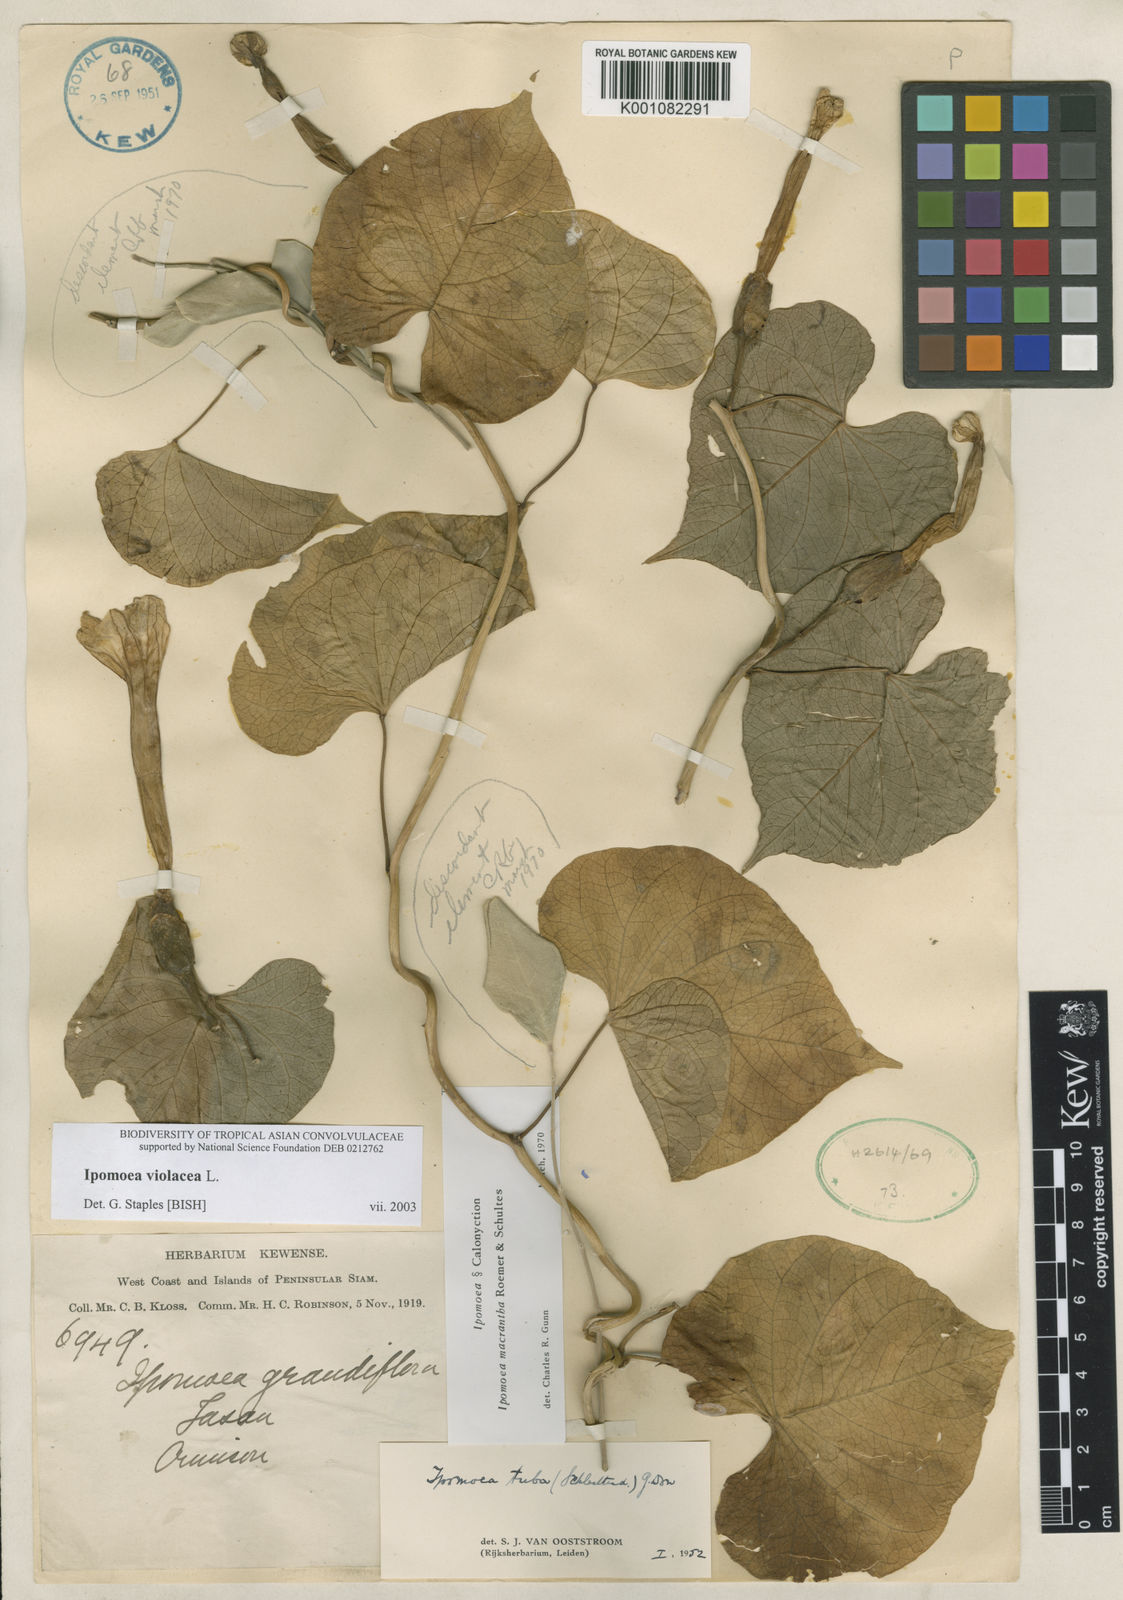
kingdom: Plantae
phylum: Tracheophyta
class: Magnoliopsida
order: Solanales
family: Convolvulaceae
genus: Ipomoea
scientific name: Ipomoea violacea
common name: Beach moonflower
